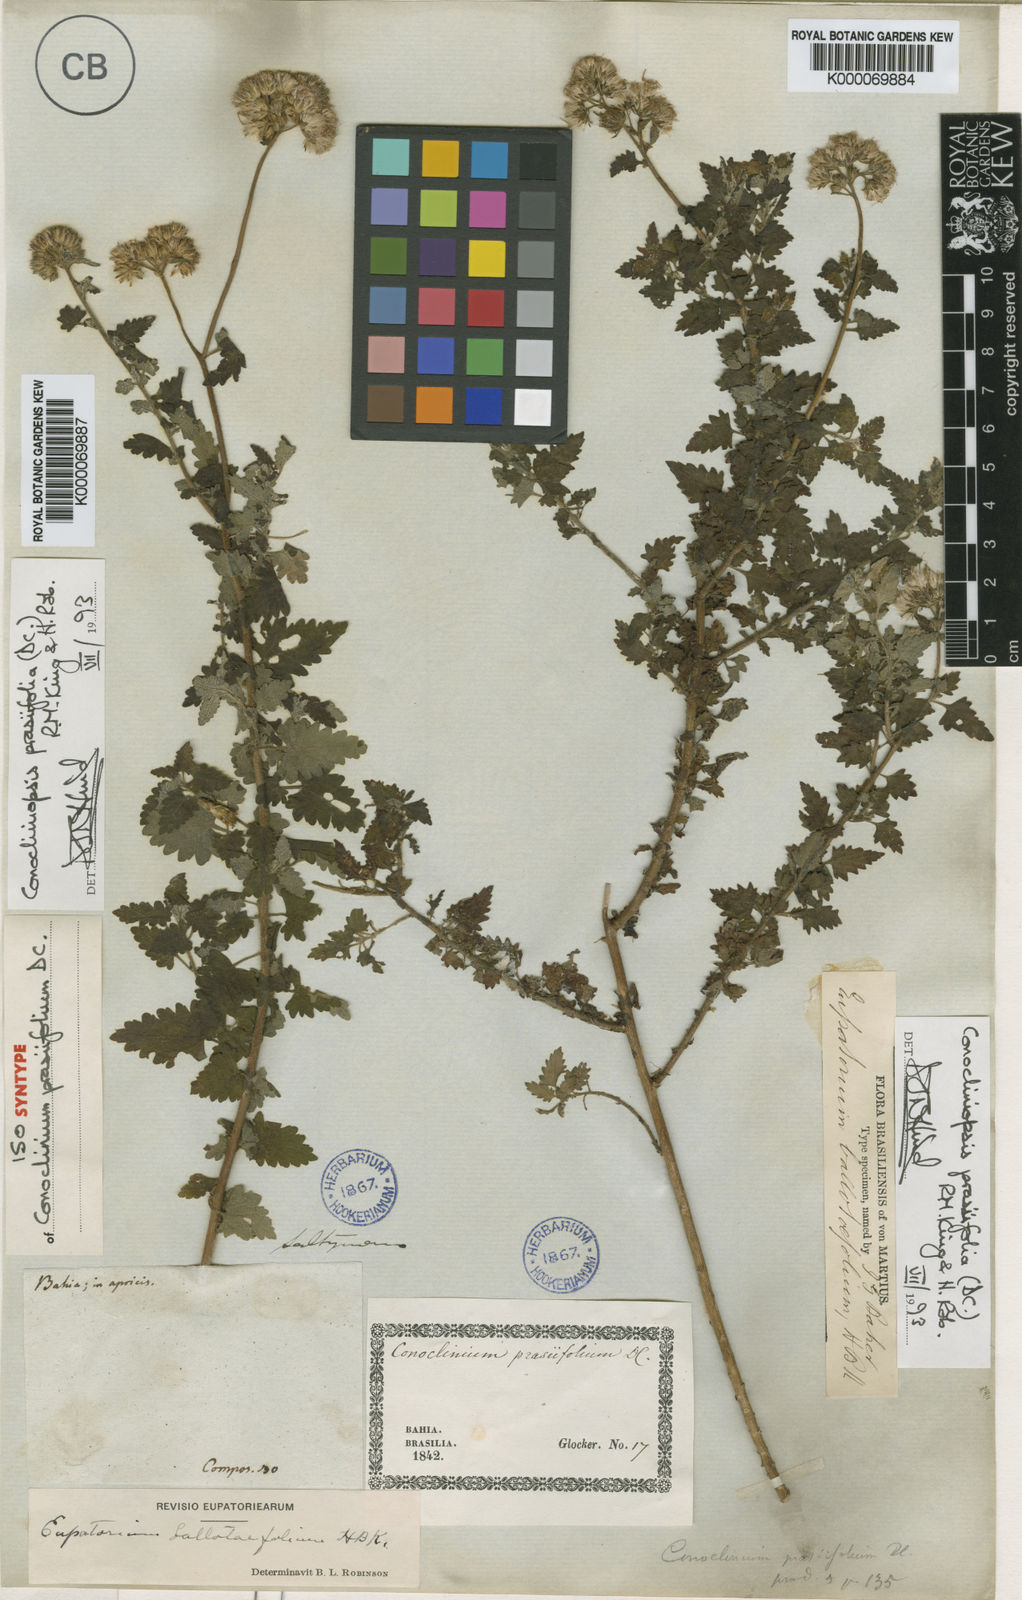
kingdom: Plantae
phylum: Tracheophyta
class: Magnoliopsida
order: Asterales
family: Asteraceae
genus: Conocliniopsis
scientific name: Conocliniopsis grossedentata
